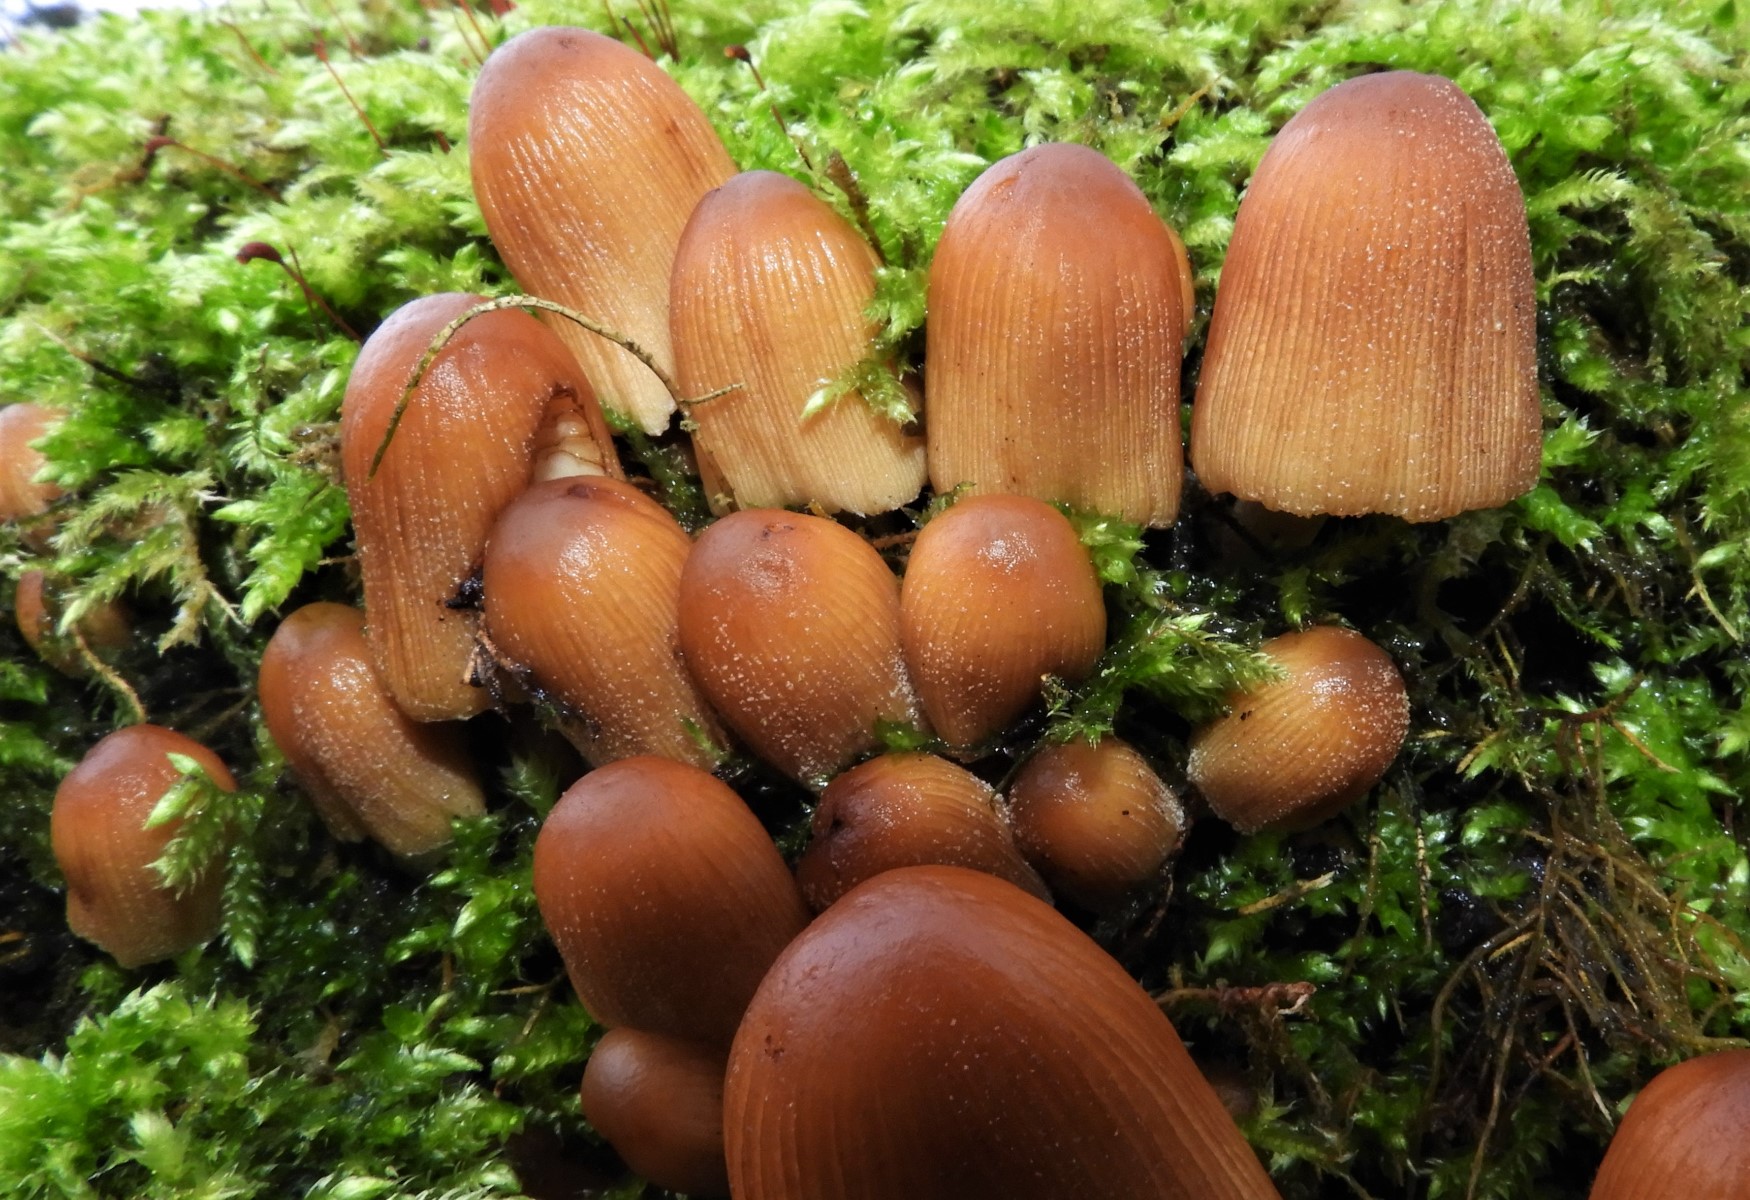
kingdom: Fungi
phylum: Basidiomycota
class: Agaricomycetes
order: Agaricales
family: Psathyrellaceae
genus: Coprinellus
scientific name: Coprinellus
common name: blækhat
